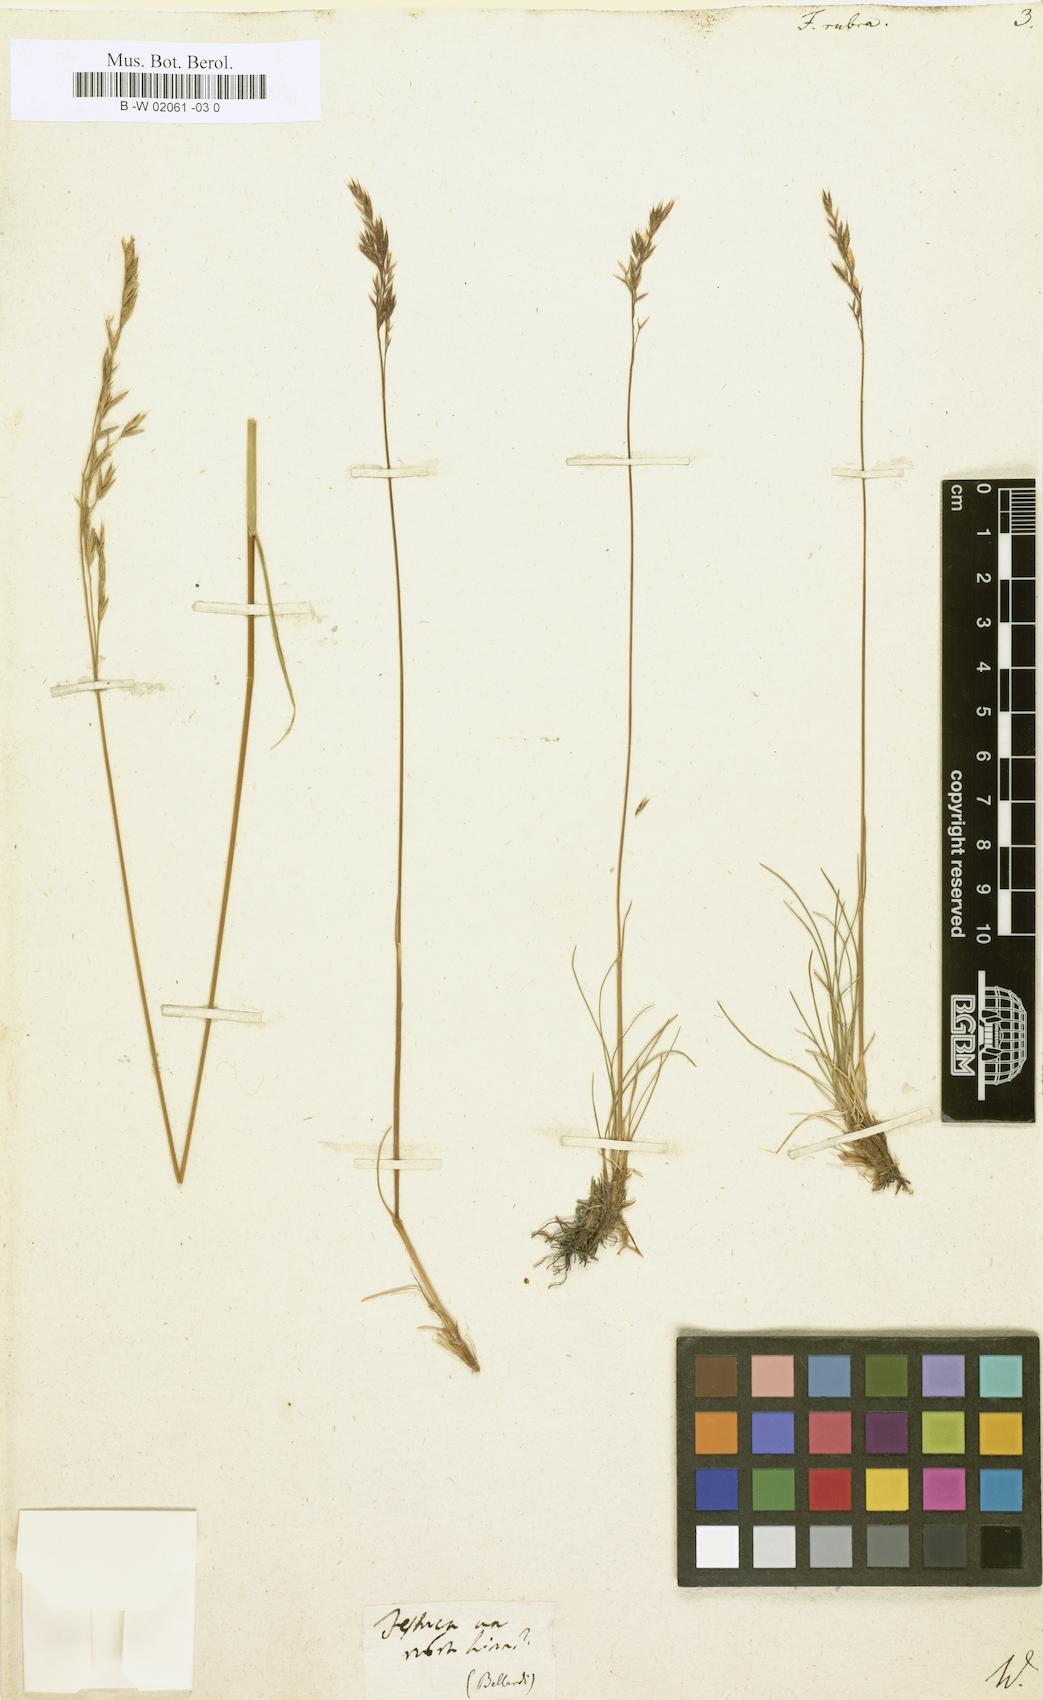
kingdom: Plantae
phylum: Tracheophyta
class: Liliopsida
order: Poales
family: Poaceae
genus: Festuca
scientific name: Festuca rubra
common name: Red fescue
